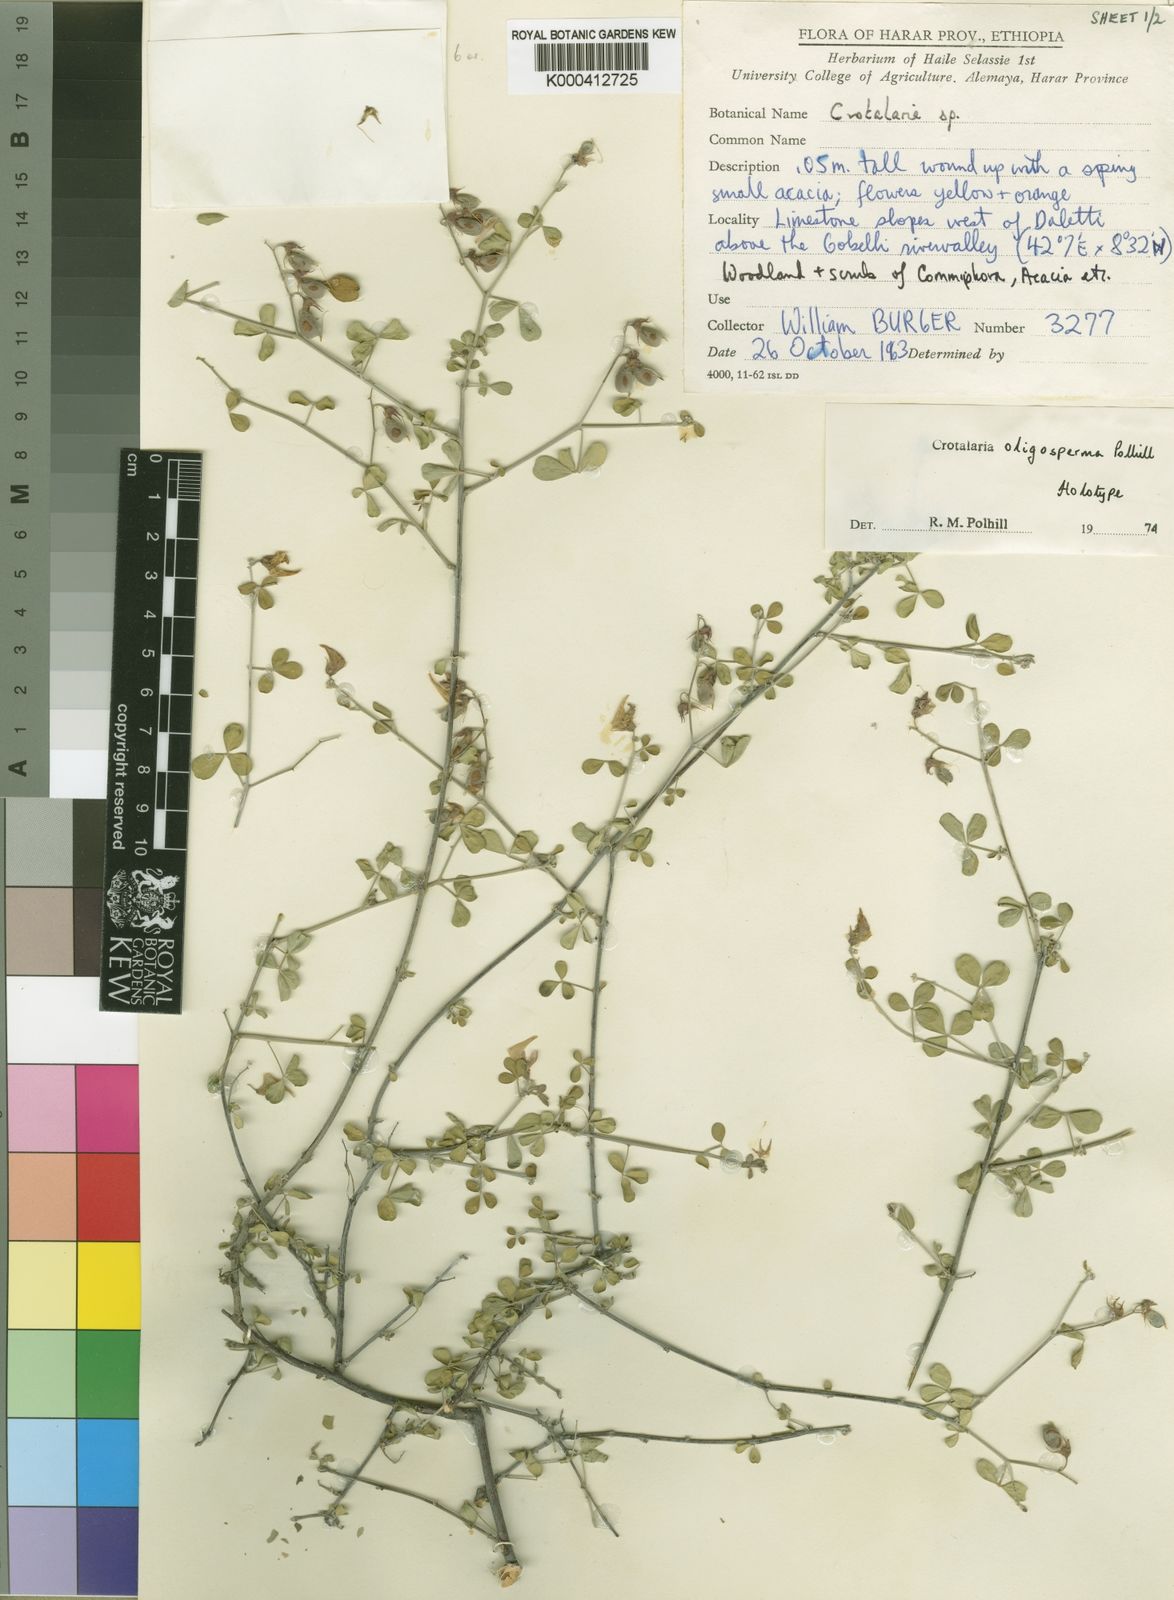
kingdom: Plantae
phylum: Tracheophyta
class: Magnoliopsida
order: Fabales
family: Fabaceae
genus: Crotalaria
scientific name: Crotalaria oligosperma
